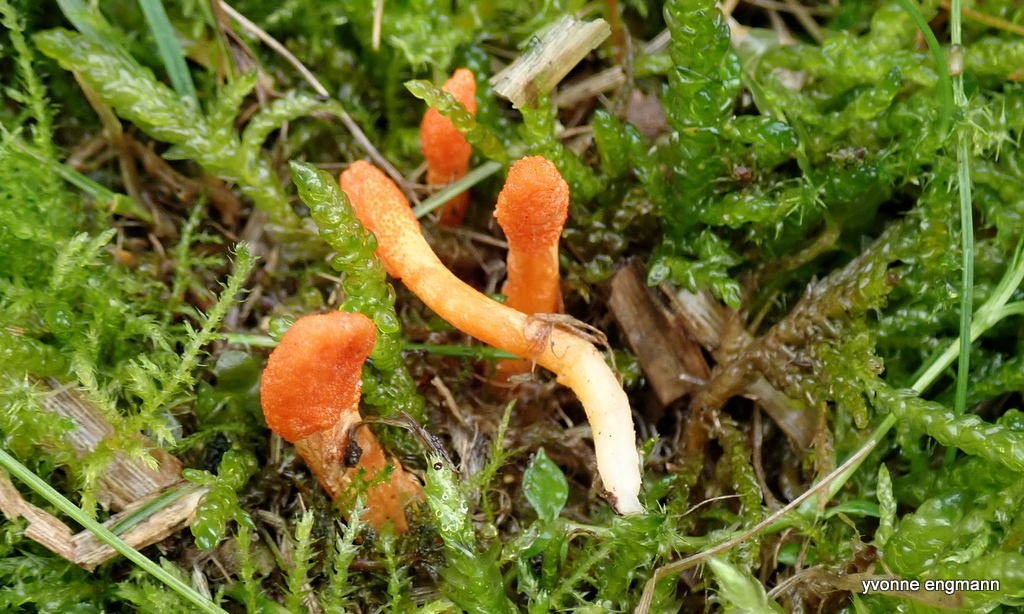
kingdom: Fungi
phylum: Ascomycota
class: Sordariomycetes
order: Hypocreales
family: Cordycipitaceae
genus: Cordyceps
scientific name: Cordyceps militaris
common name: puppe-snyltekølle
